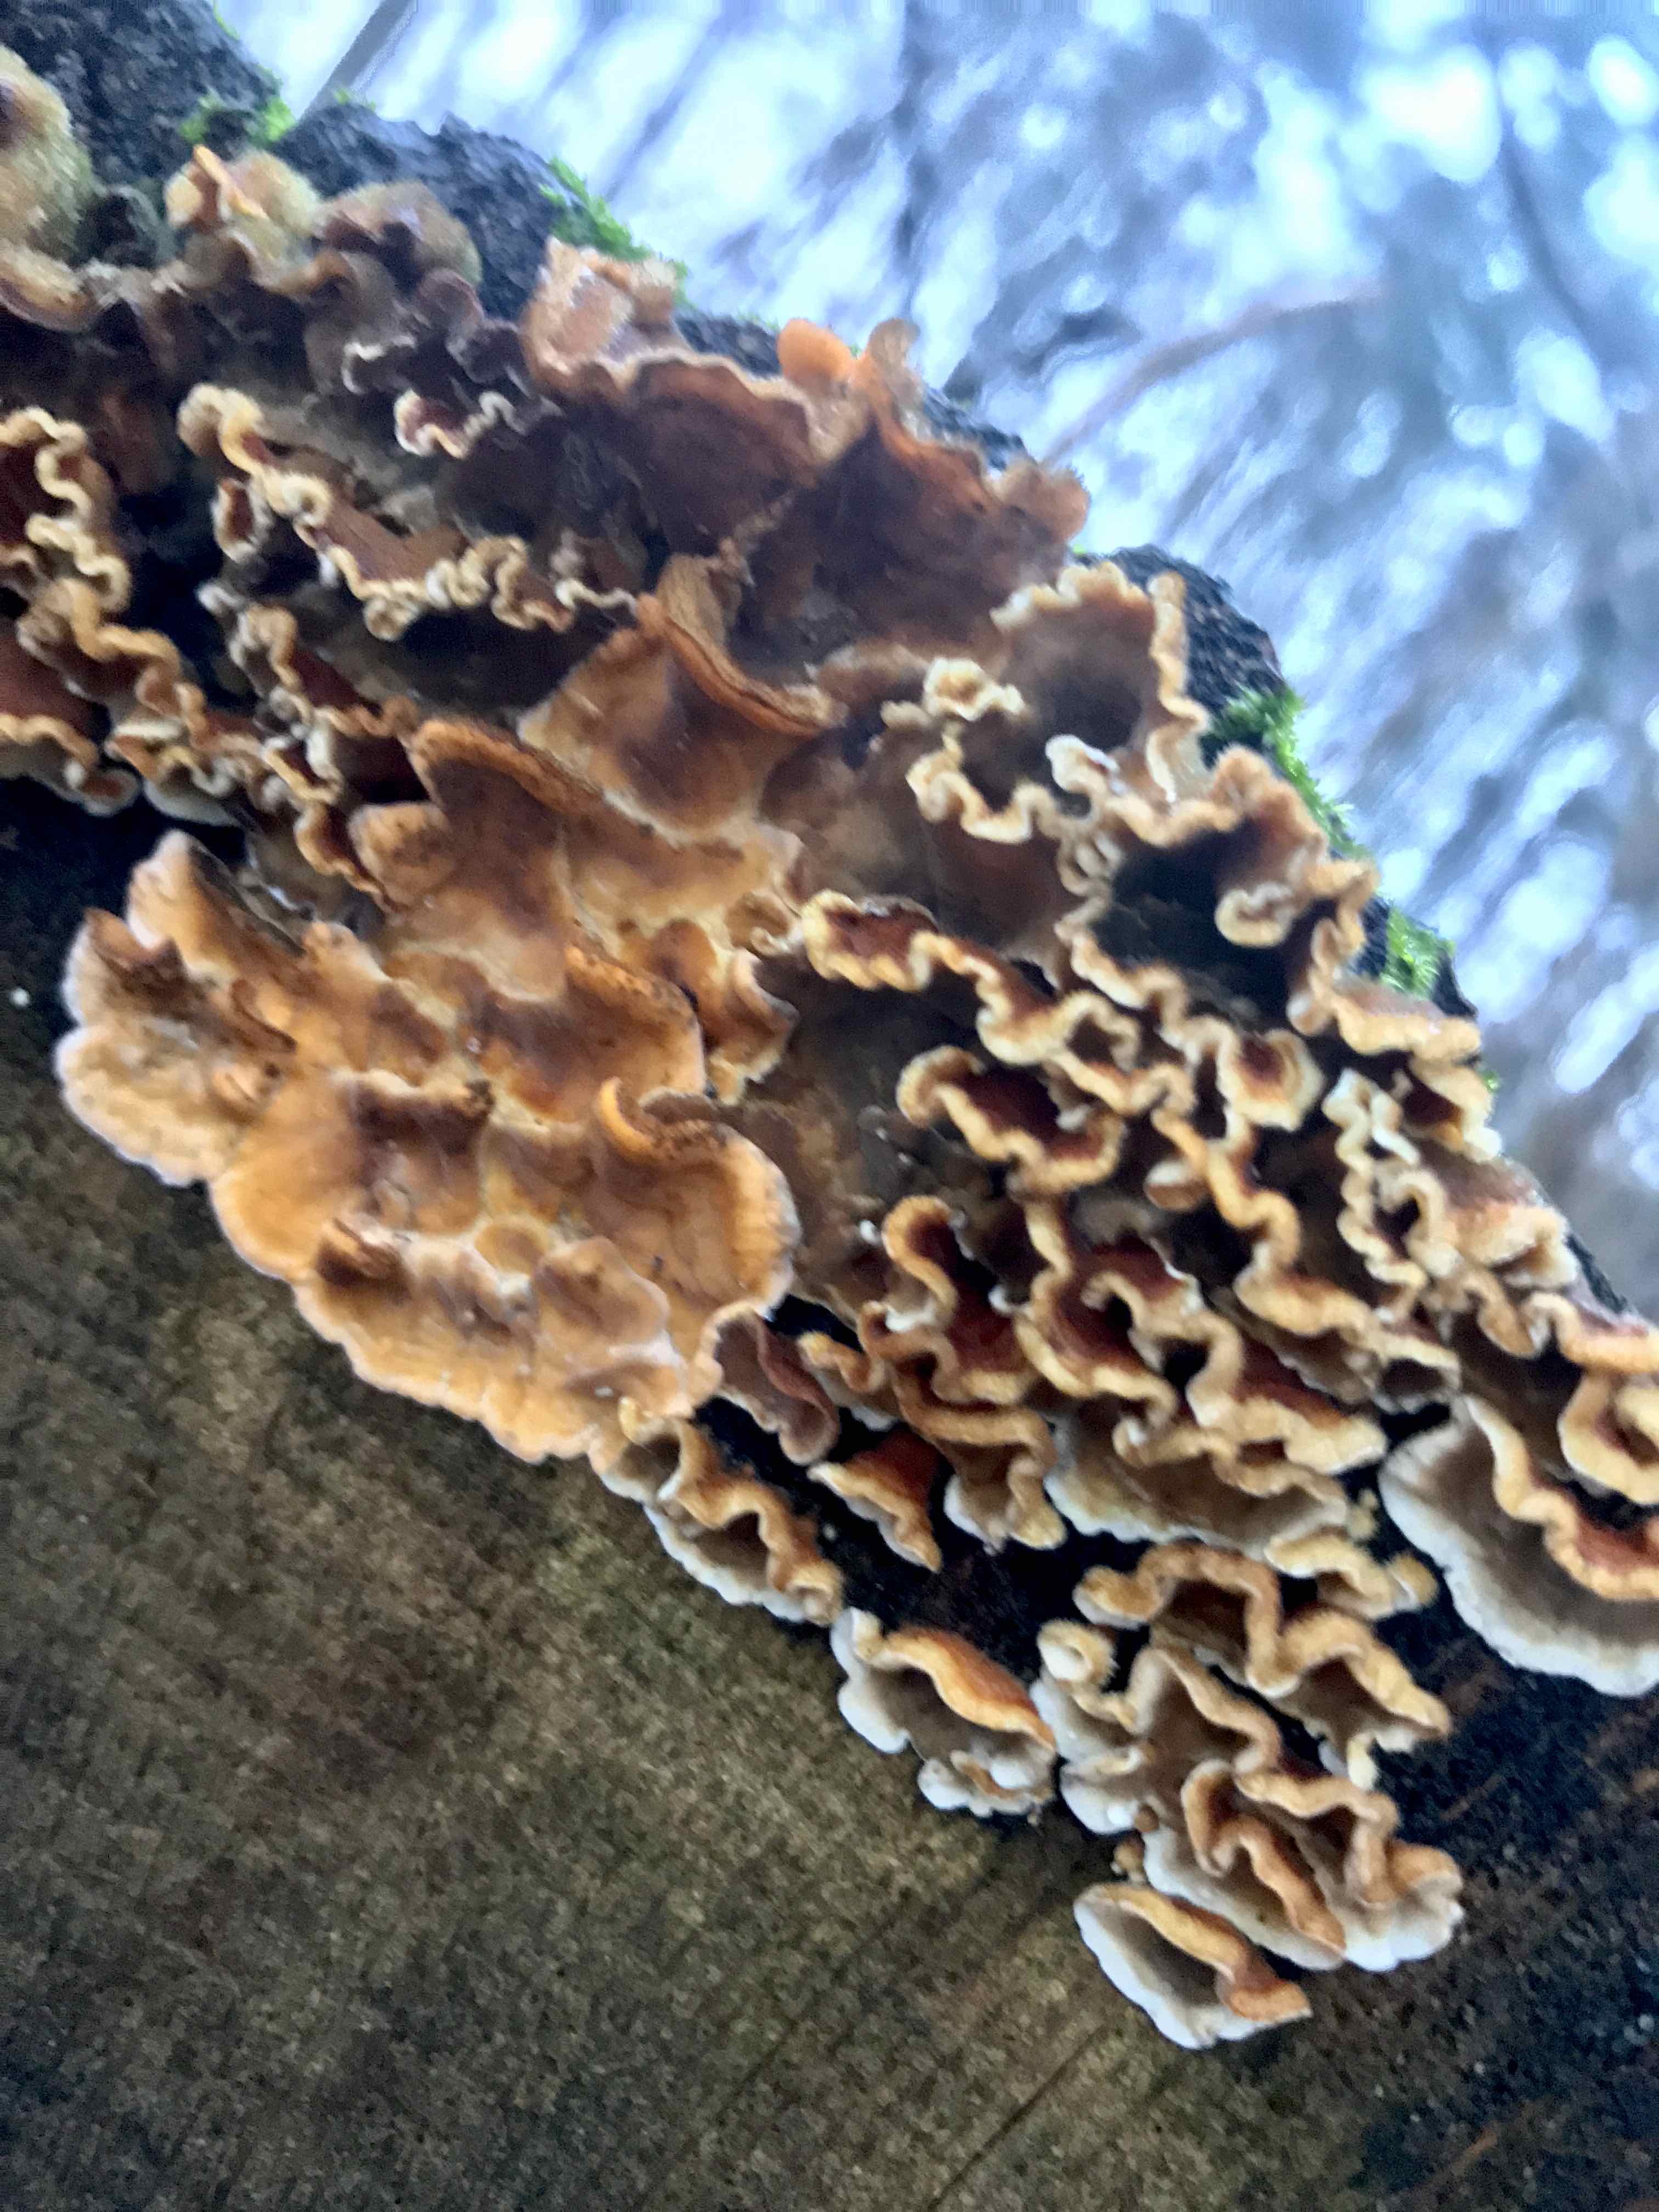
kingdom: Fungi
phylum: Basidiomycota
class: Agaricomycetes
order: Russulales
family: Stereaceae
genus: Stereum
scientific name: Stereum hirsutum
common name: håret lædersvamp
